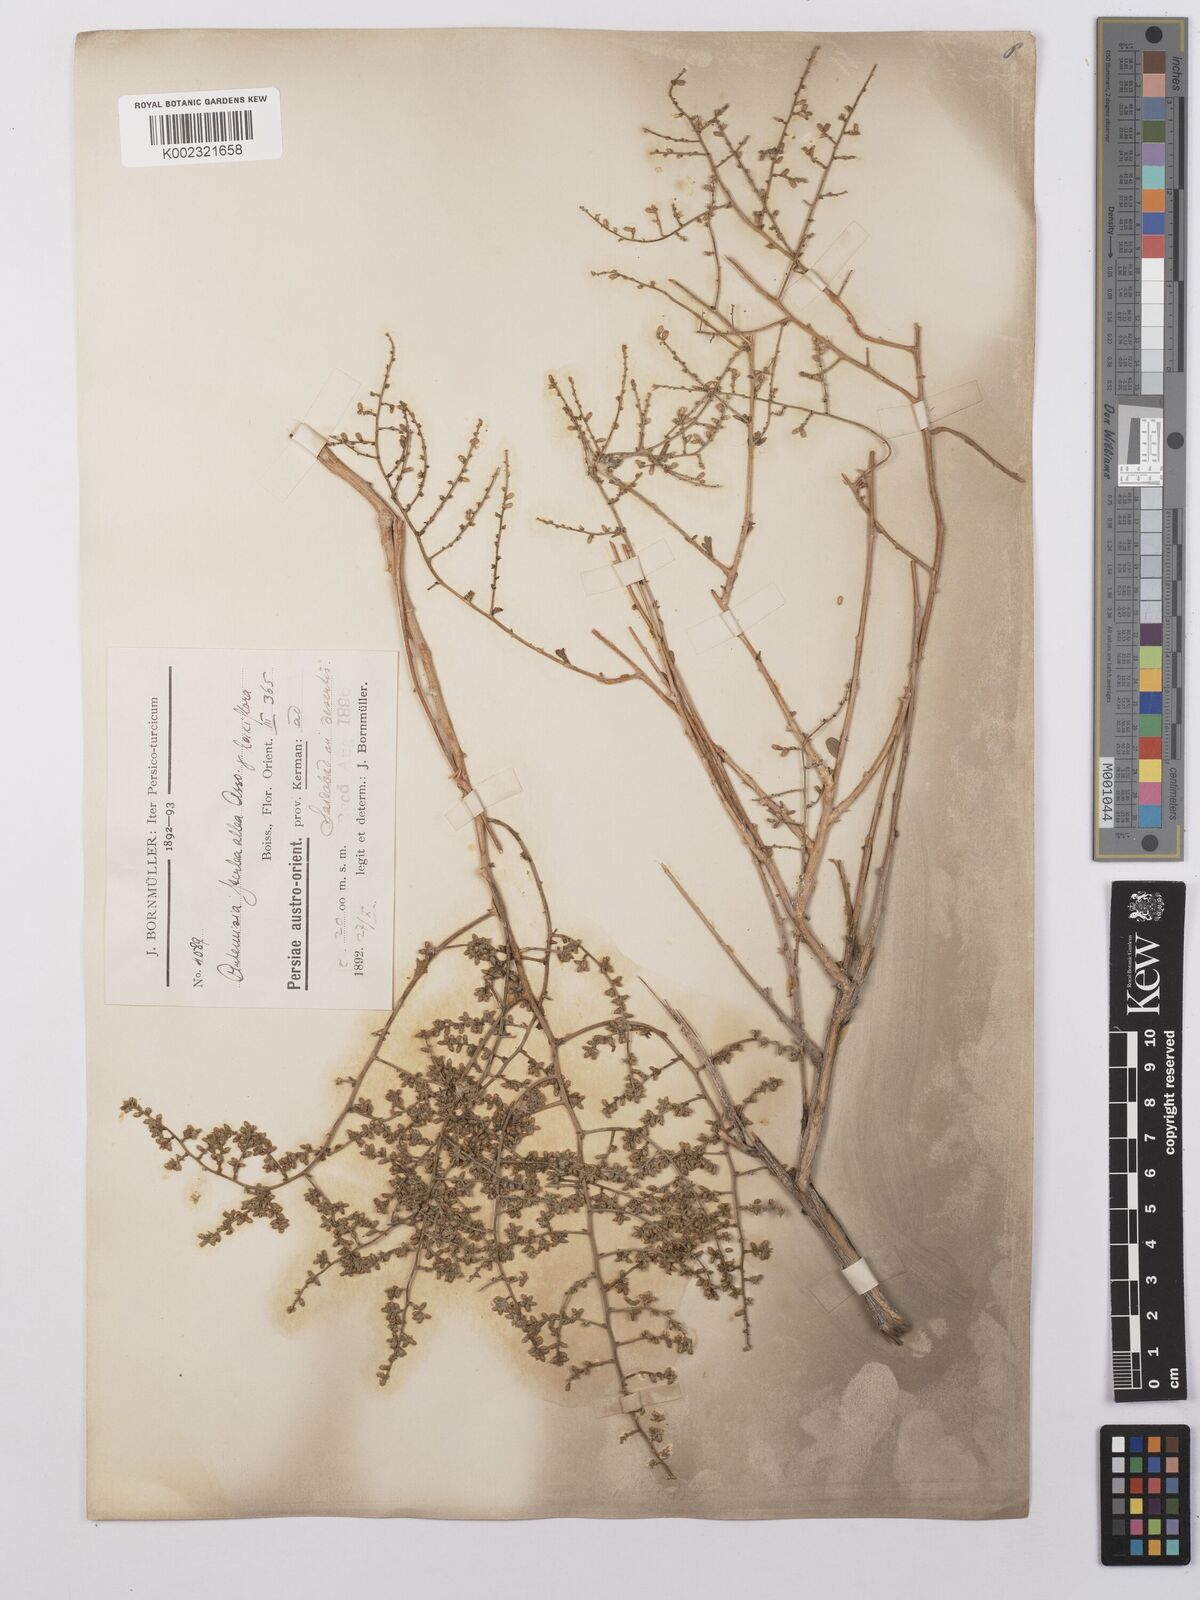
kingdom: Plantae
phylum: Tracheophyta
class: Magnoliopsida
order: Asterales
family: Asteraceae
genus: Artemisia
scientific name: Artemisia herba-alba
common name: White wormwood
